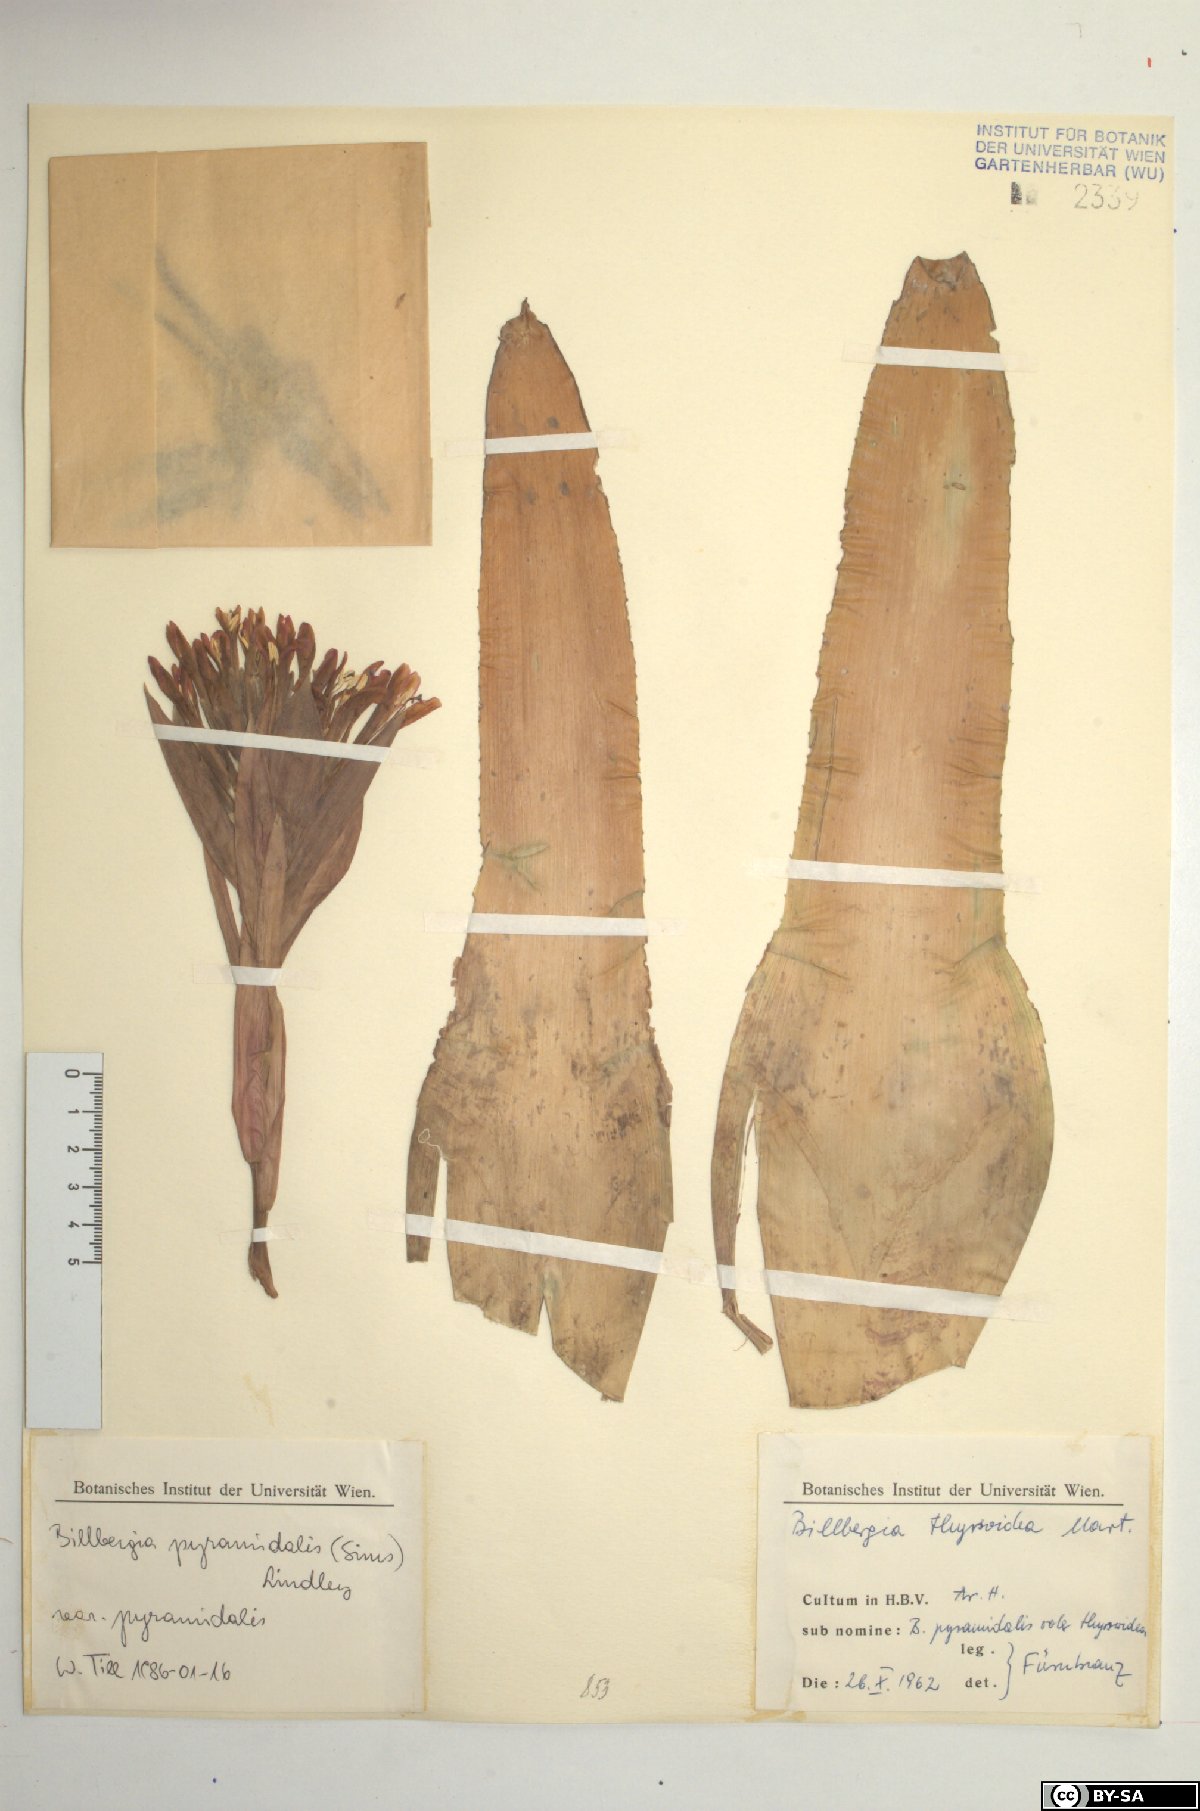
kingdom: Plantae
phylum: Tracheophyta
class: Liliopsida
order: Poales
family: Bromeliaceae
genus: Billbergia
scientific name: Billbergia pyramidalis
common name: Foolproofplant
